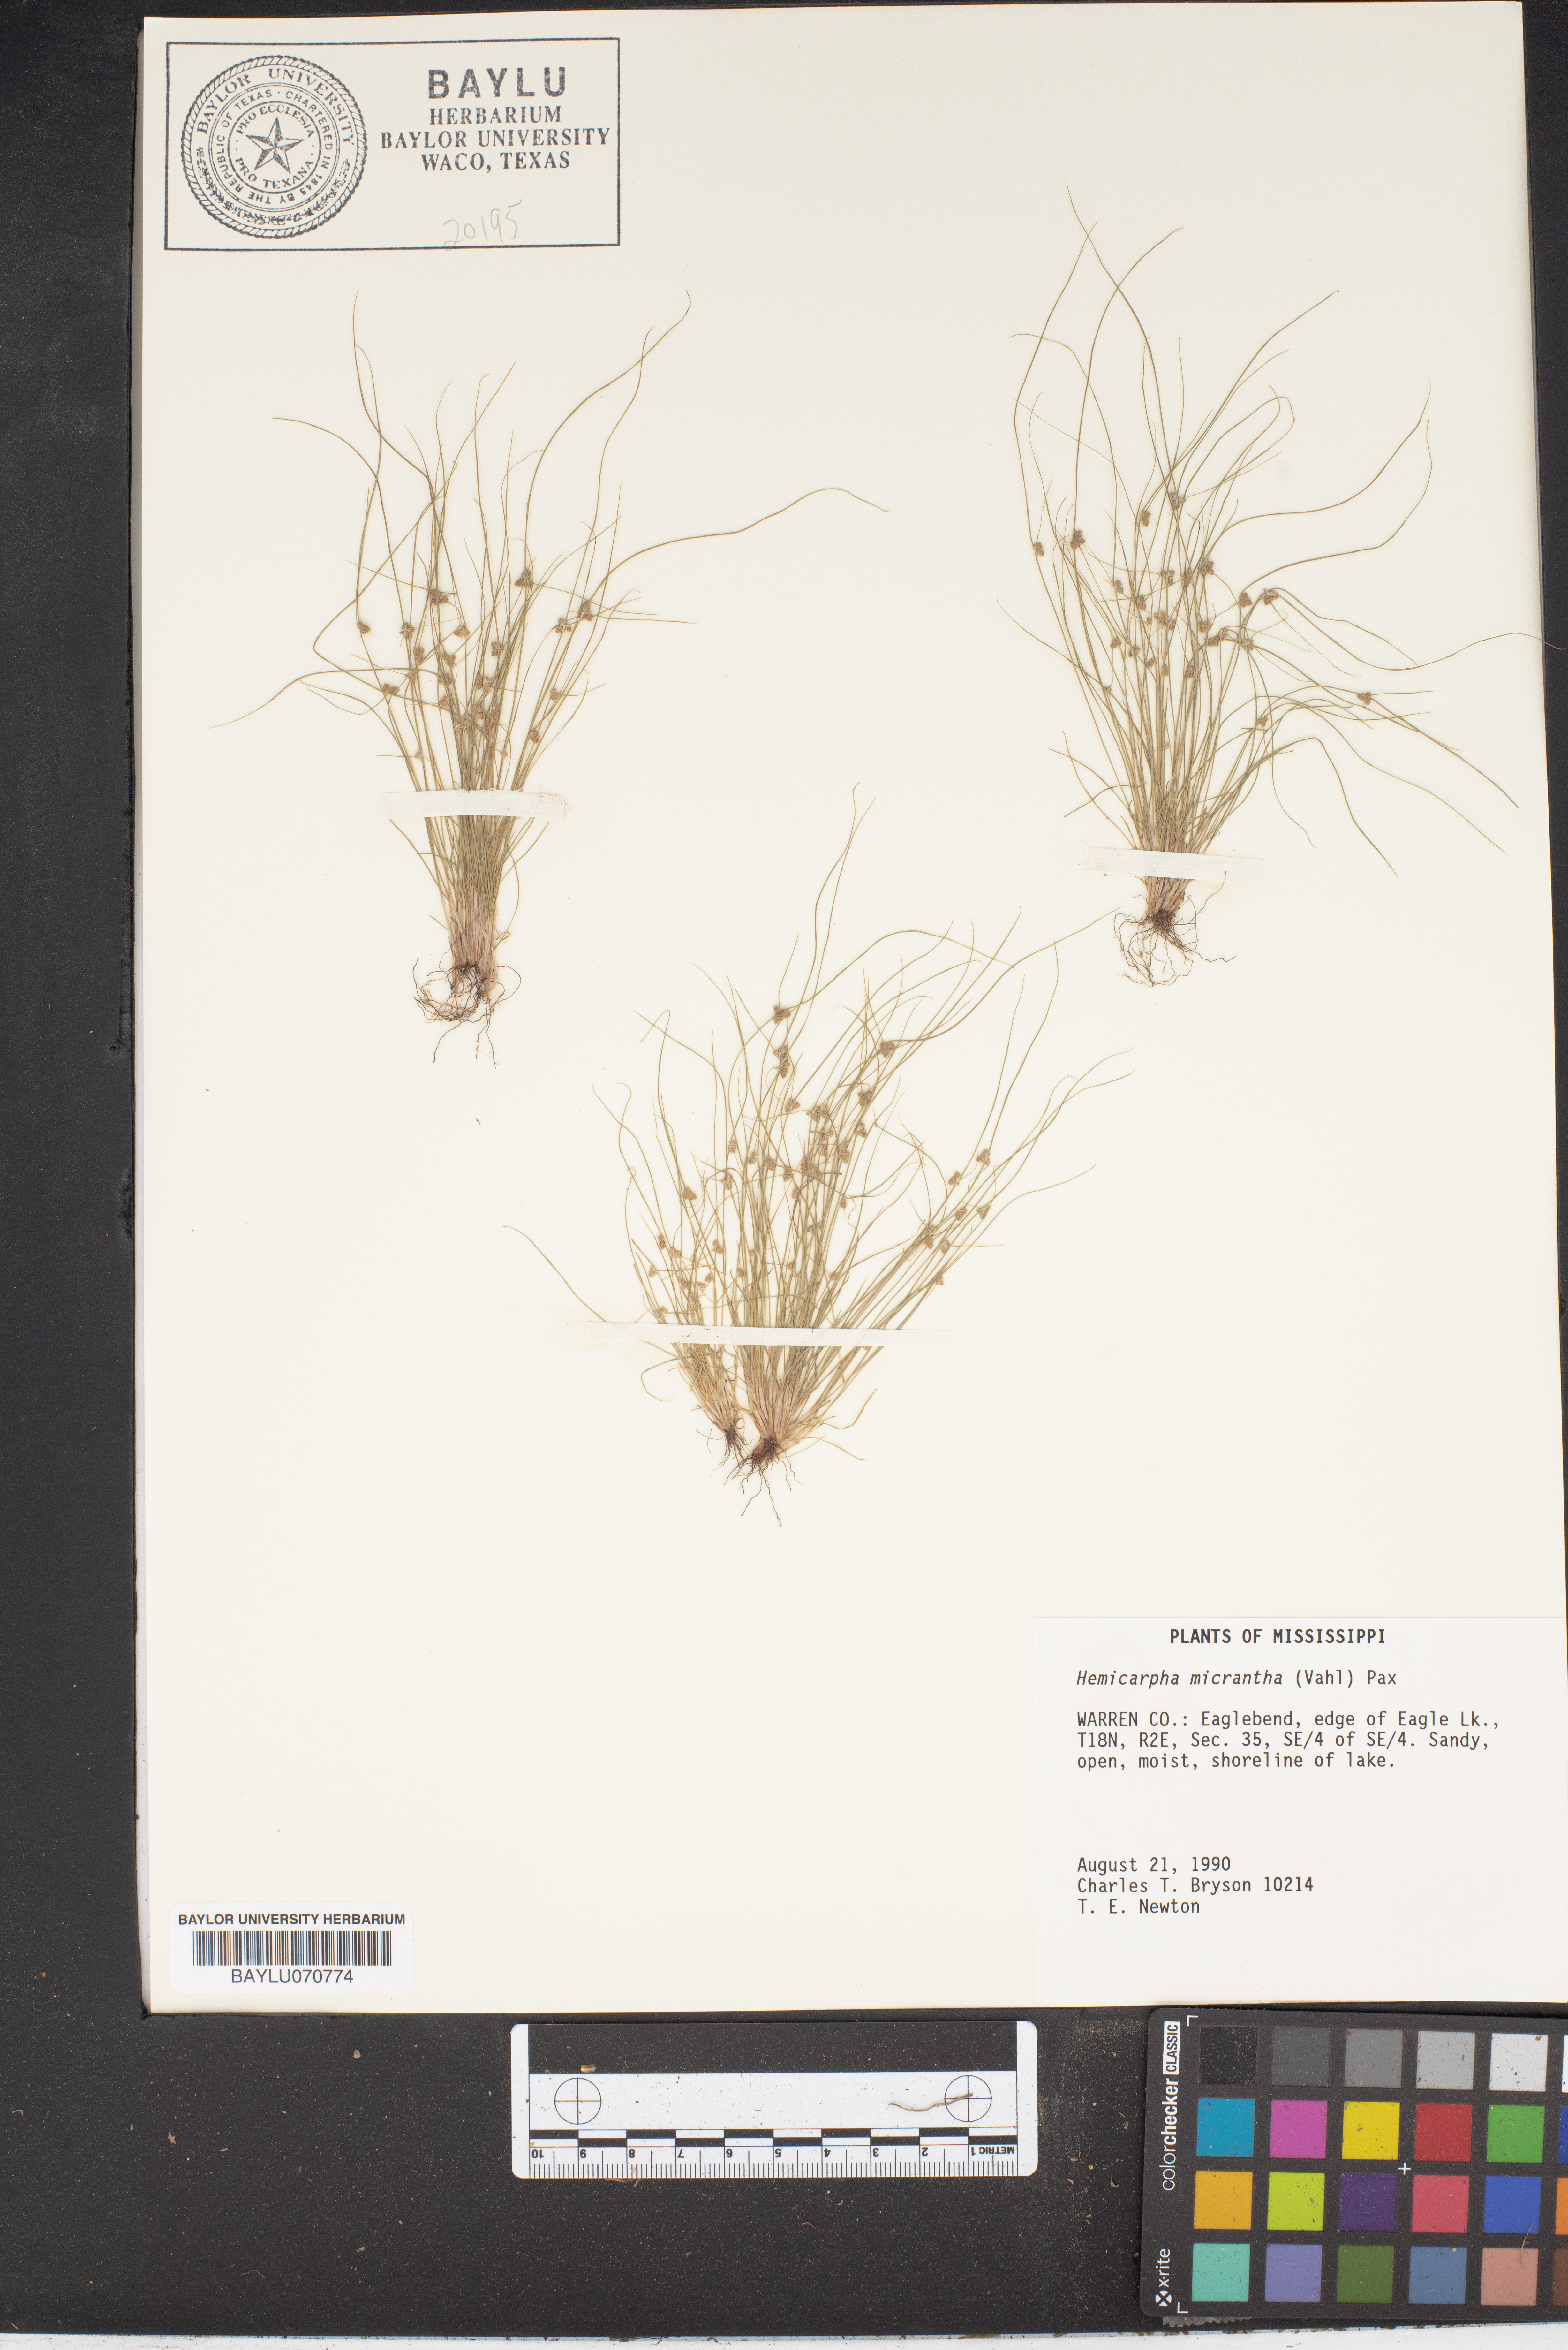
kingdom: Plantae
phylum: Tracheophyta
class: Liliopsida
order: Poales
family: Cyperaceae
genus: Cyperus
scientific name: Cyperus subsquarrosus
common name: Dwarf bulrush
